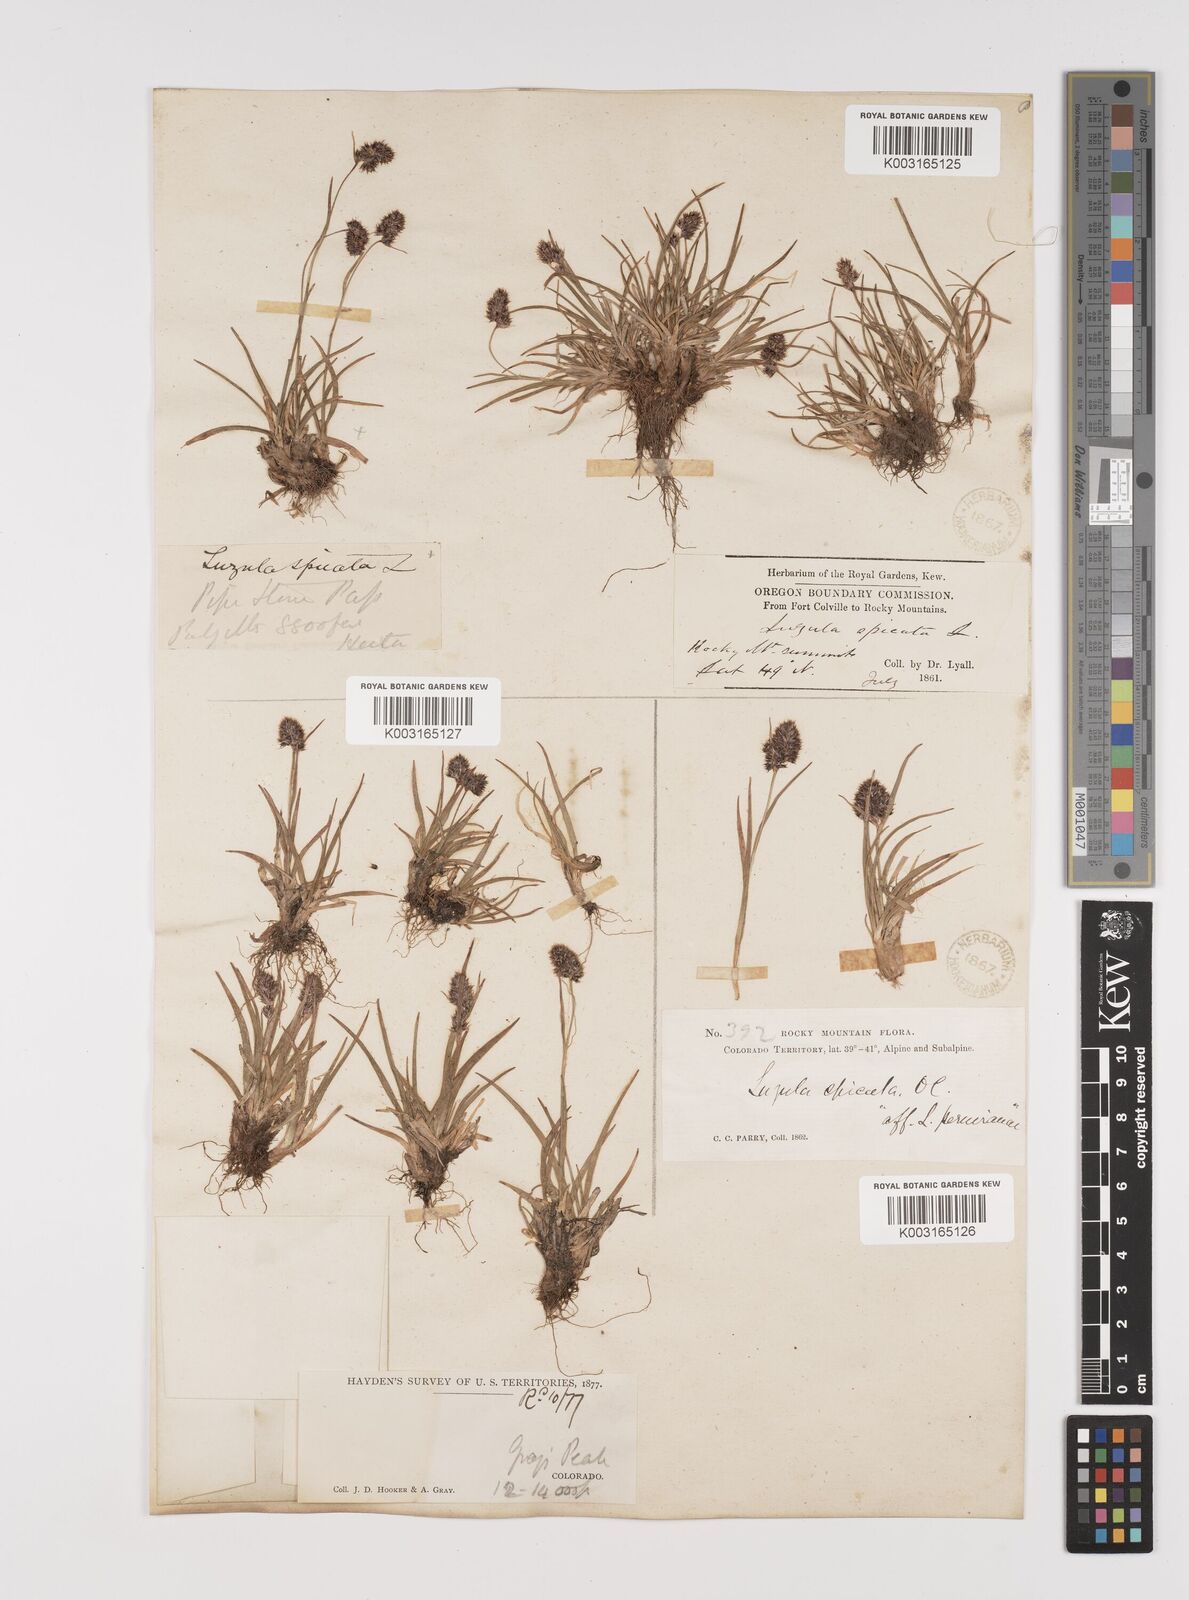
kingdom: Plantae
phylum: Tracheophyta
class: Liliopsida
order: Poales
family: Juncaceae
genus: Luzula
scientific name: Luzula spicata
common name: Spiked wood-rush
